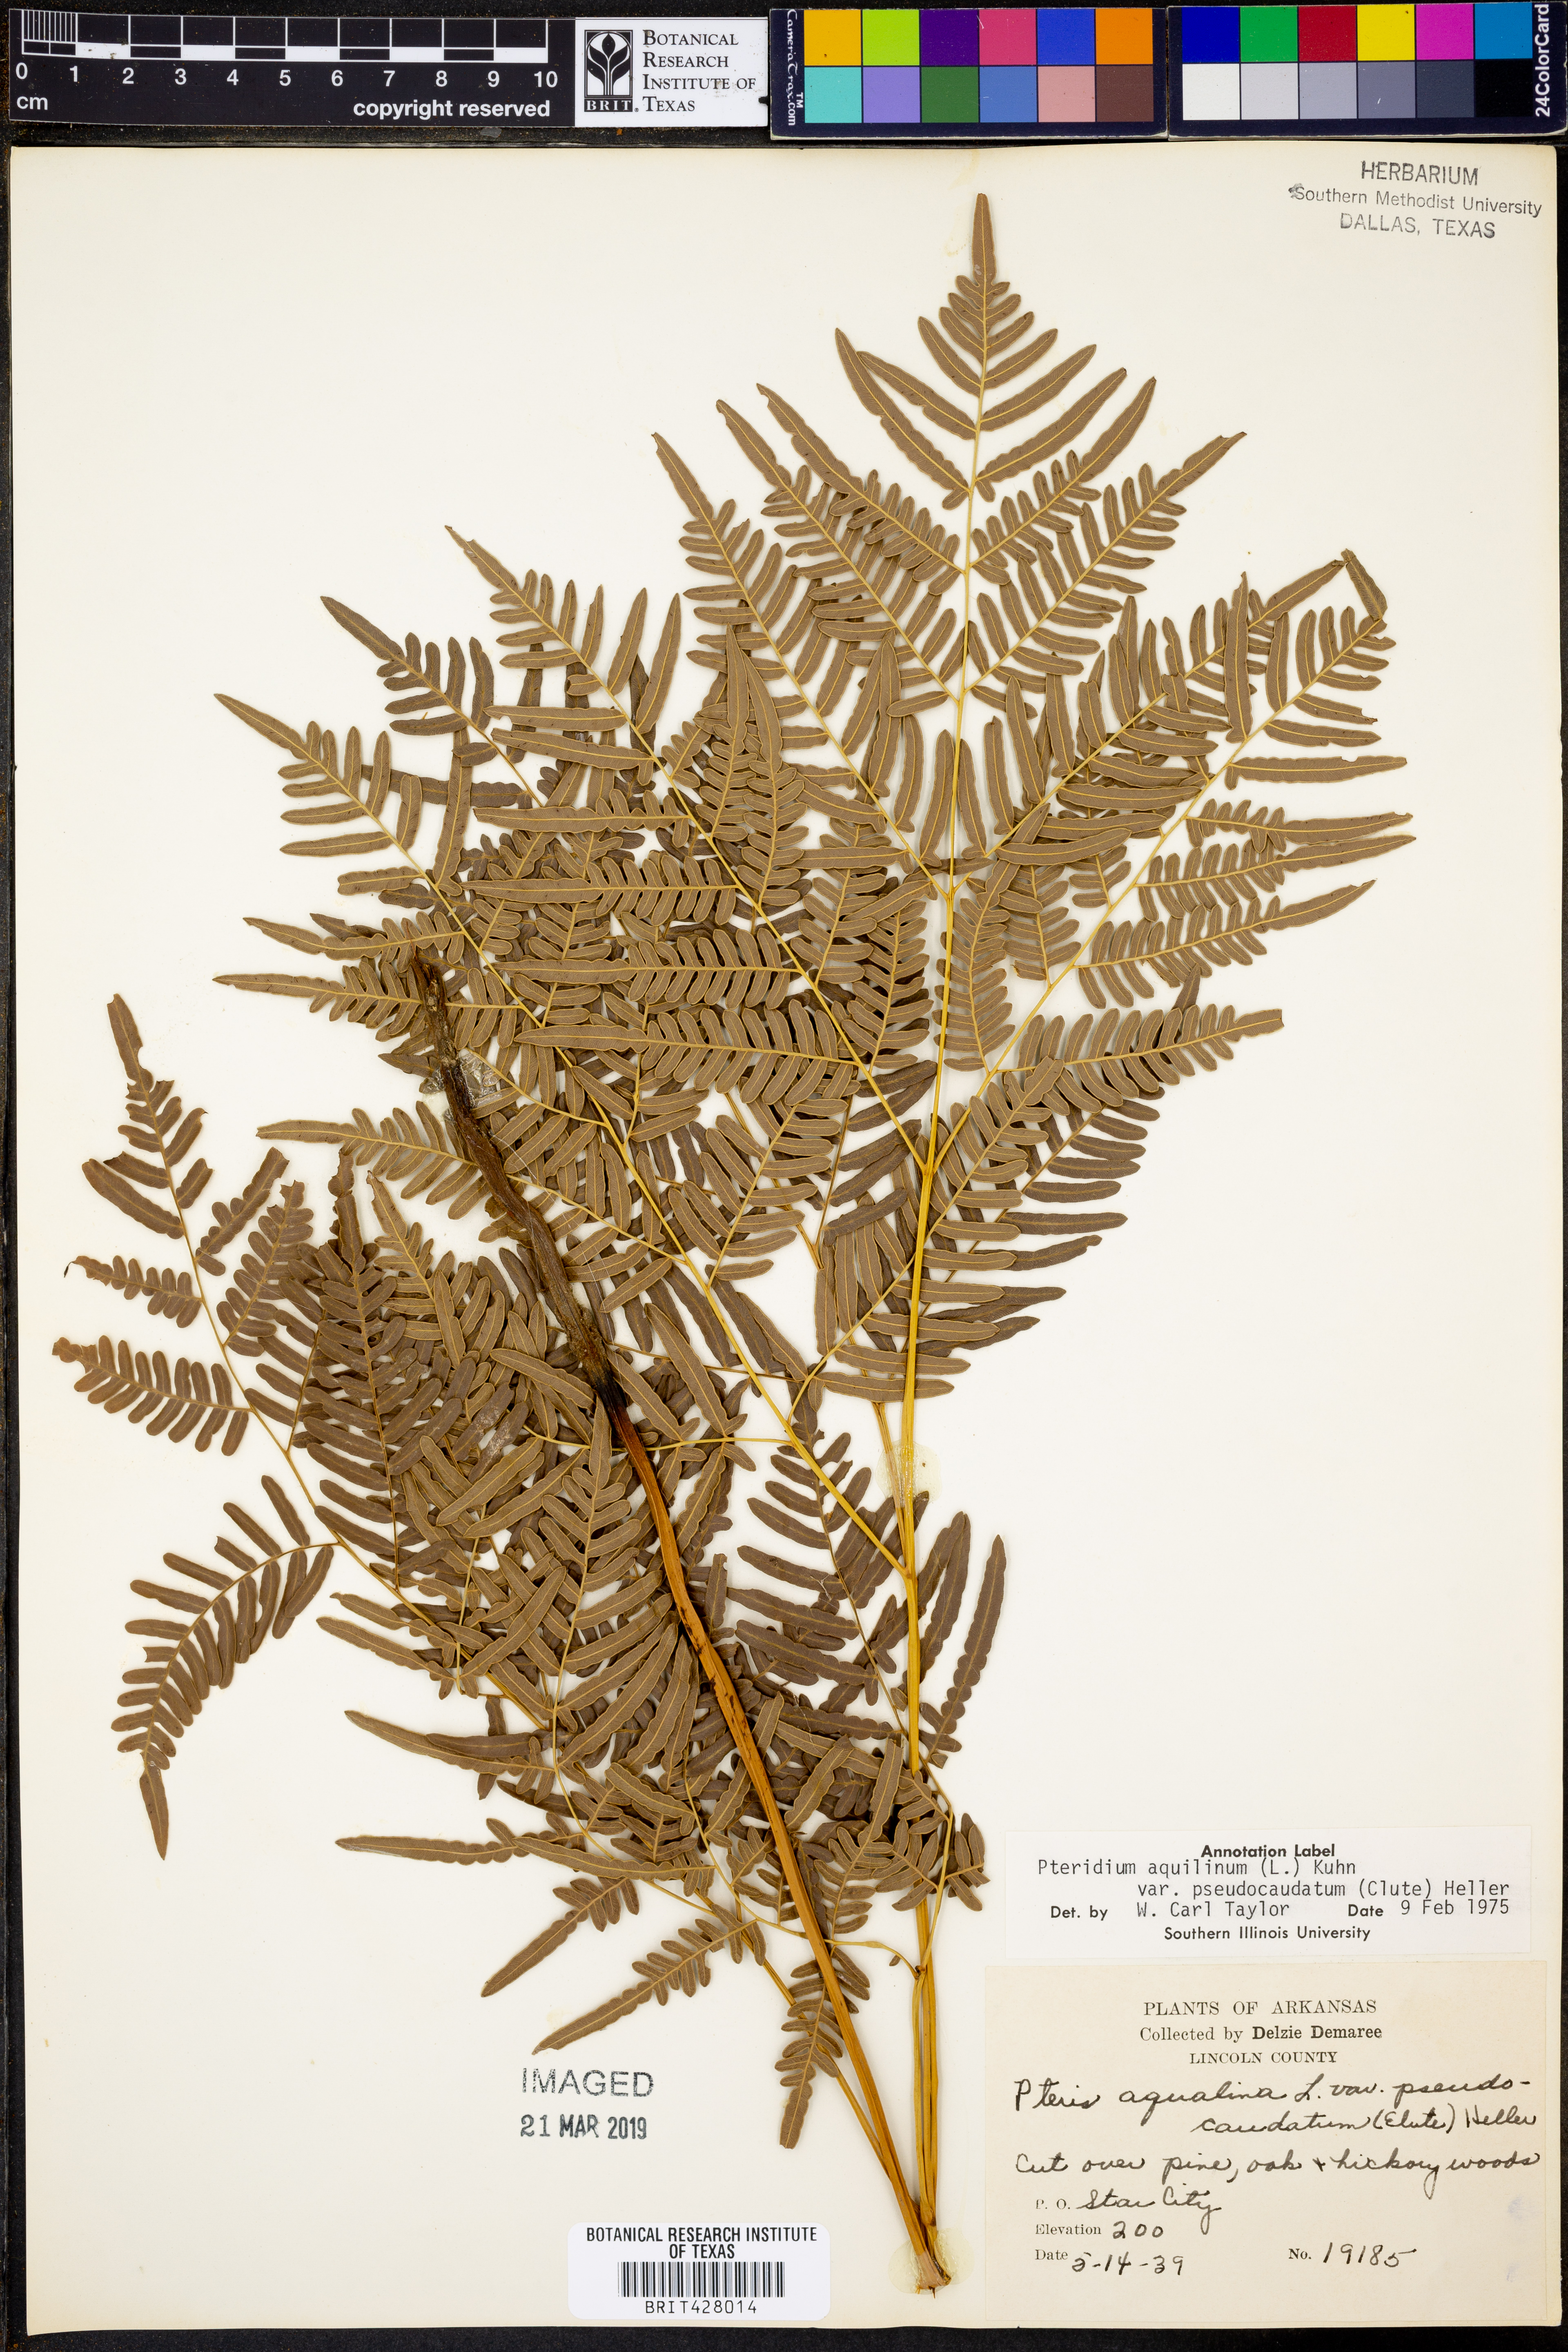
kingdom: Plantae
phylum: Tracheophyta
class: Polypodiopsida
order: Polypodiales
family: Dennstaedtiaceae
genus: Pteridium
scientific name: Pteridium aquilinum
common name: Bracken
